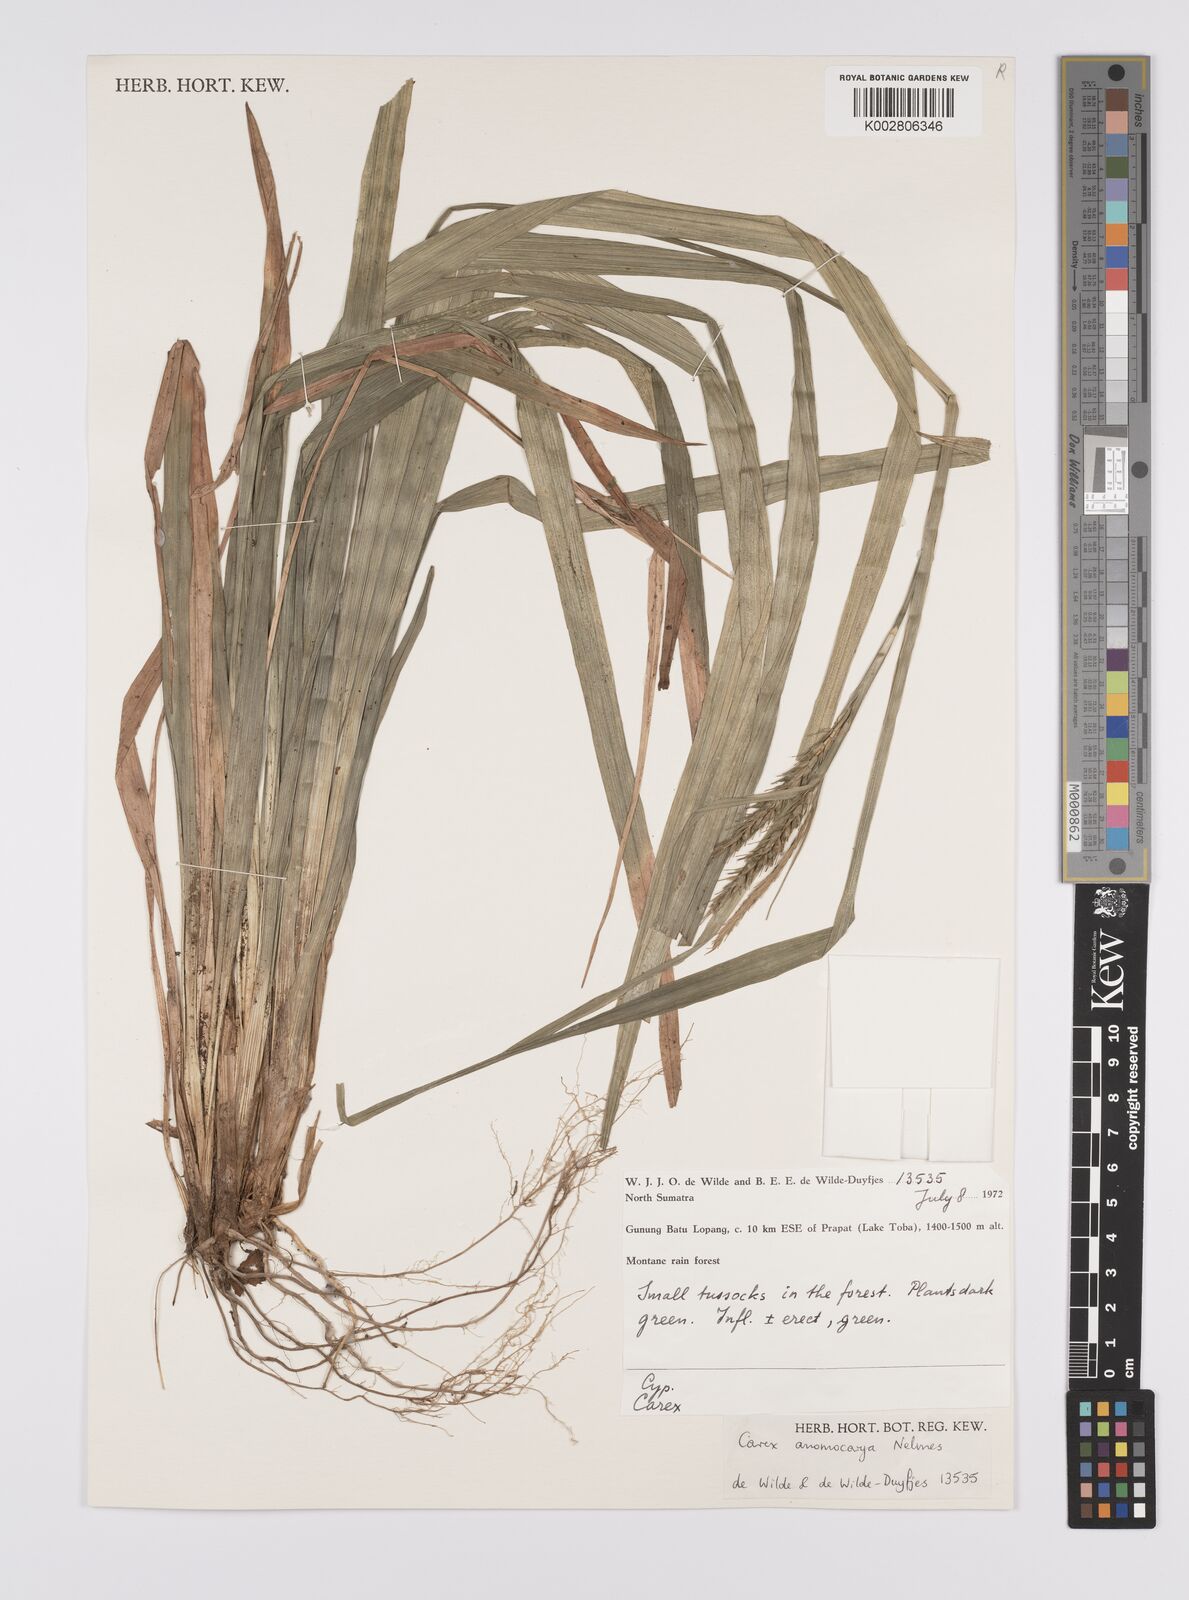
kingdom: Plantae
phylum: Tracheophyta
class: Liliopsida
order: Poales
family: Cyperaceae
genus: Carex
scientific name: Carex harlandii
